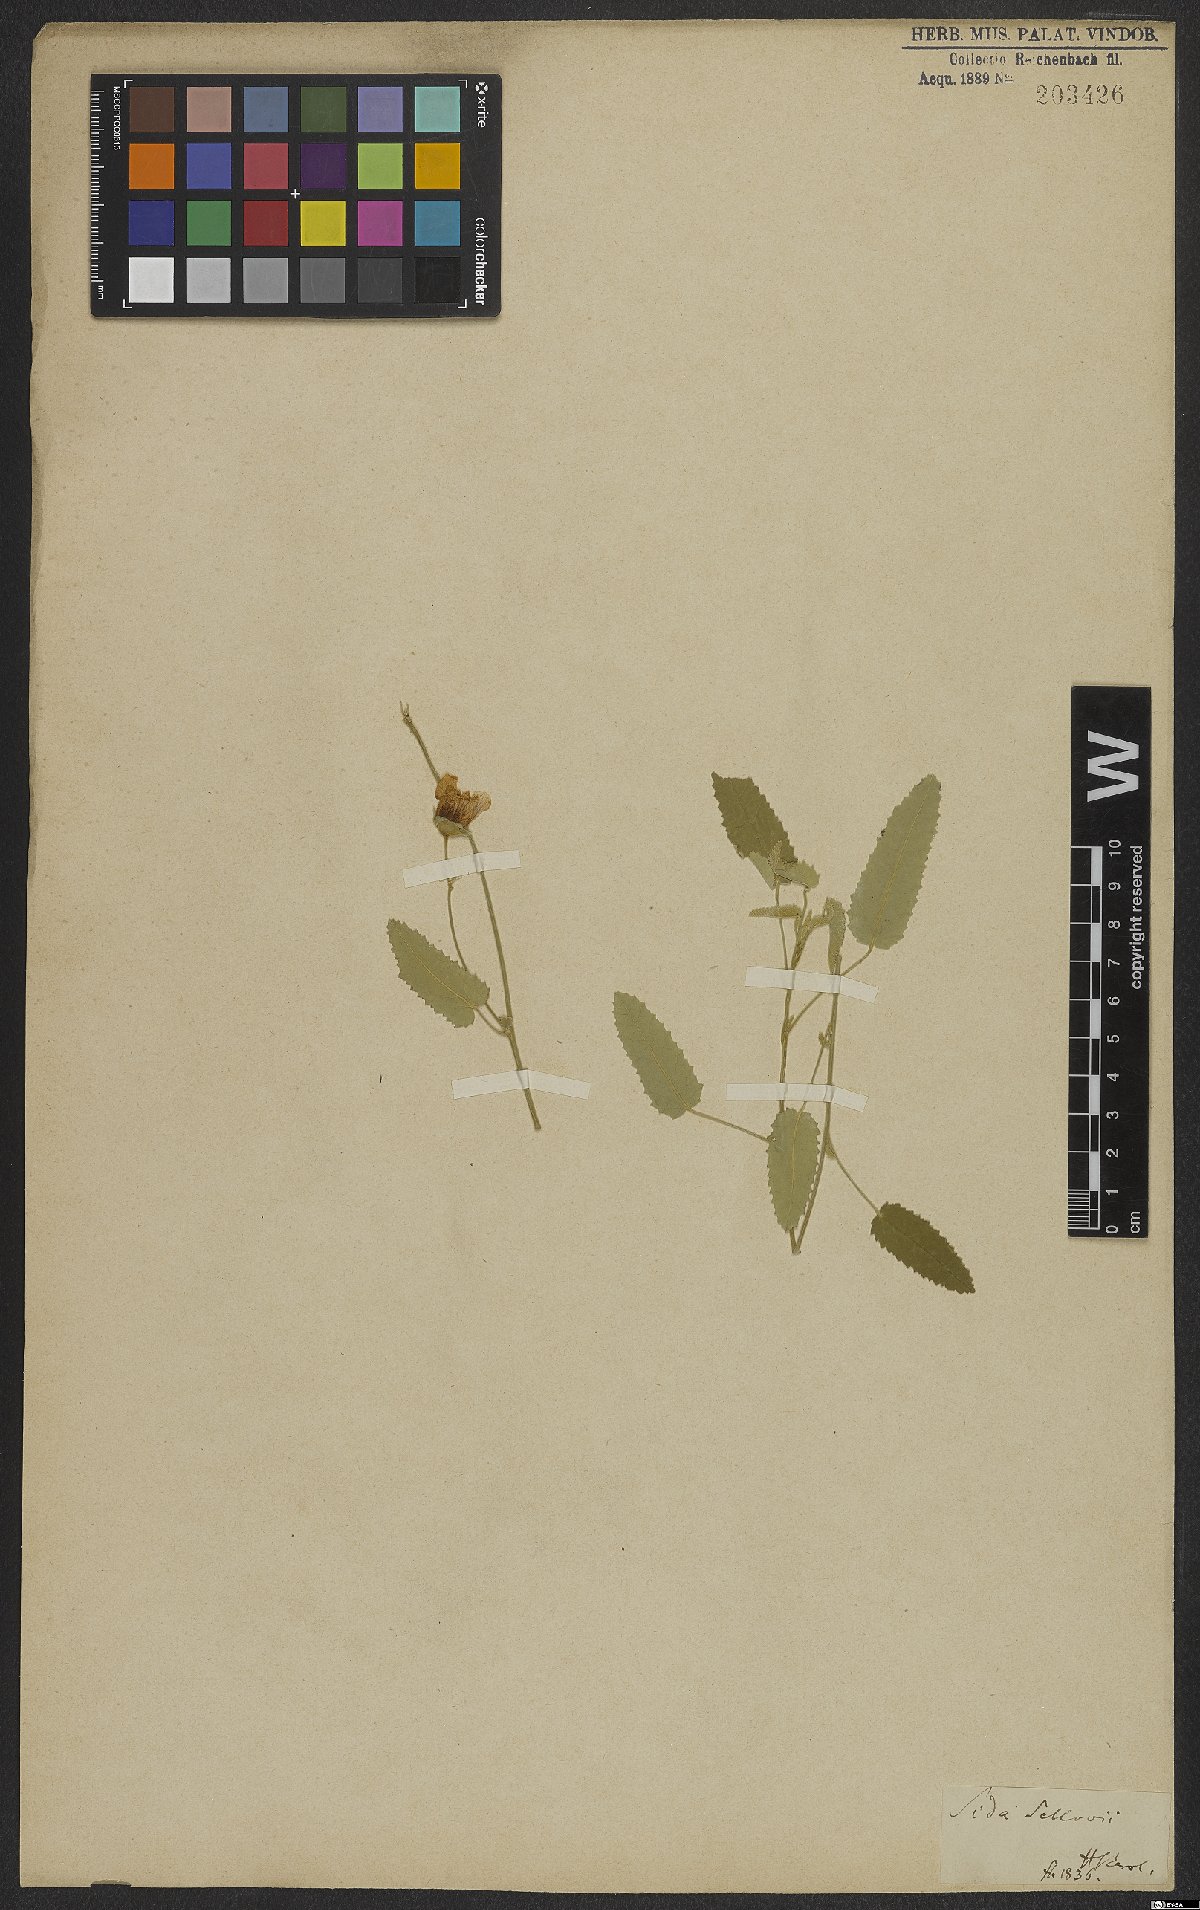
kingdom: Plantae
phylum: Tracheophyta
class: Magnoliopsida
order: Malvales
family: Malvaceae
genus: Callianthe
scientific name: Callianthe sellowiana
